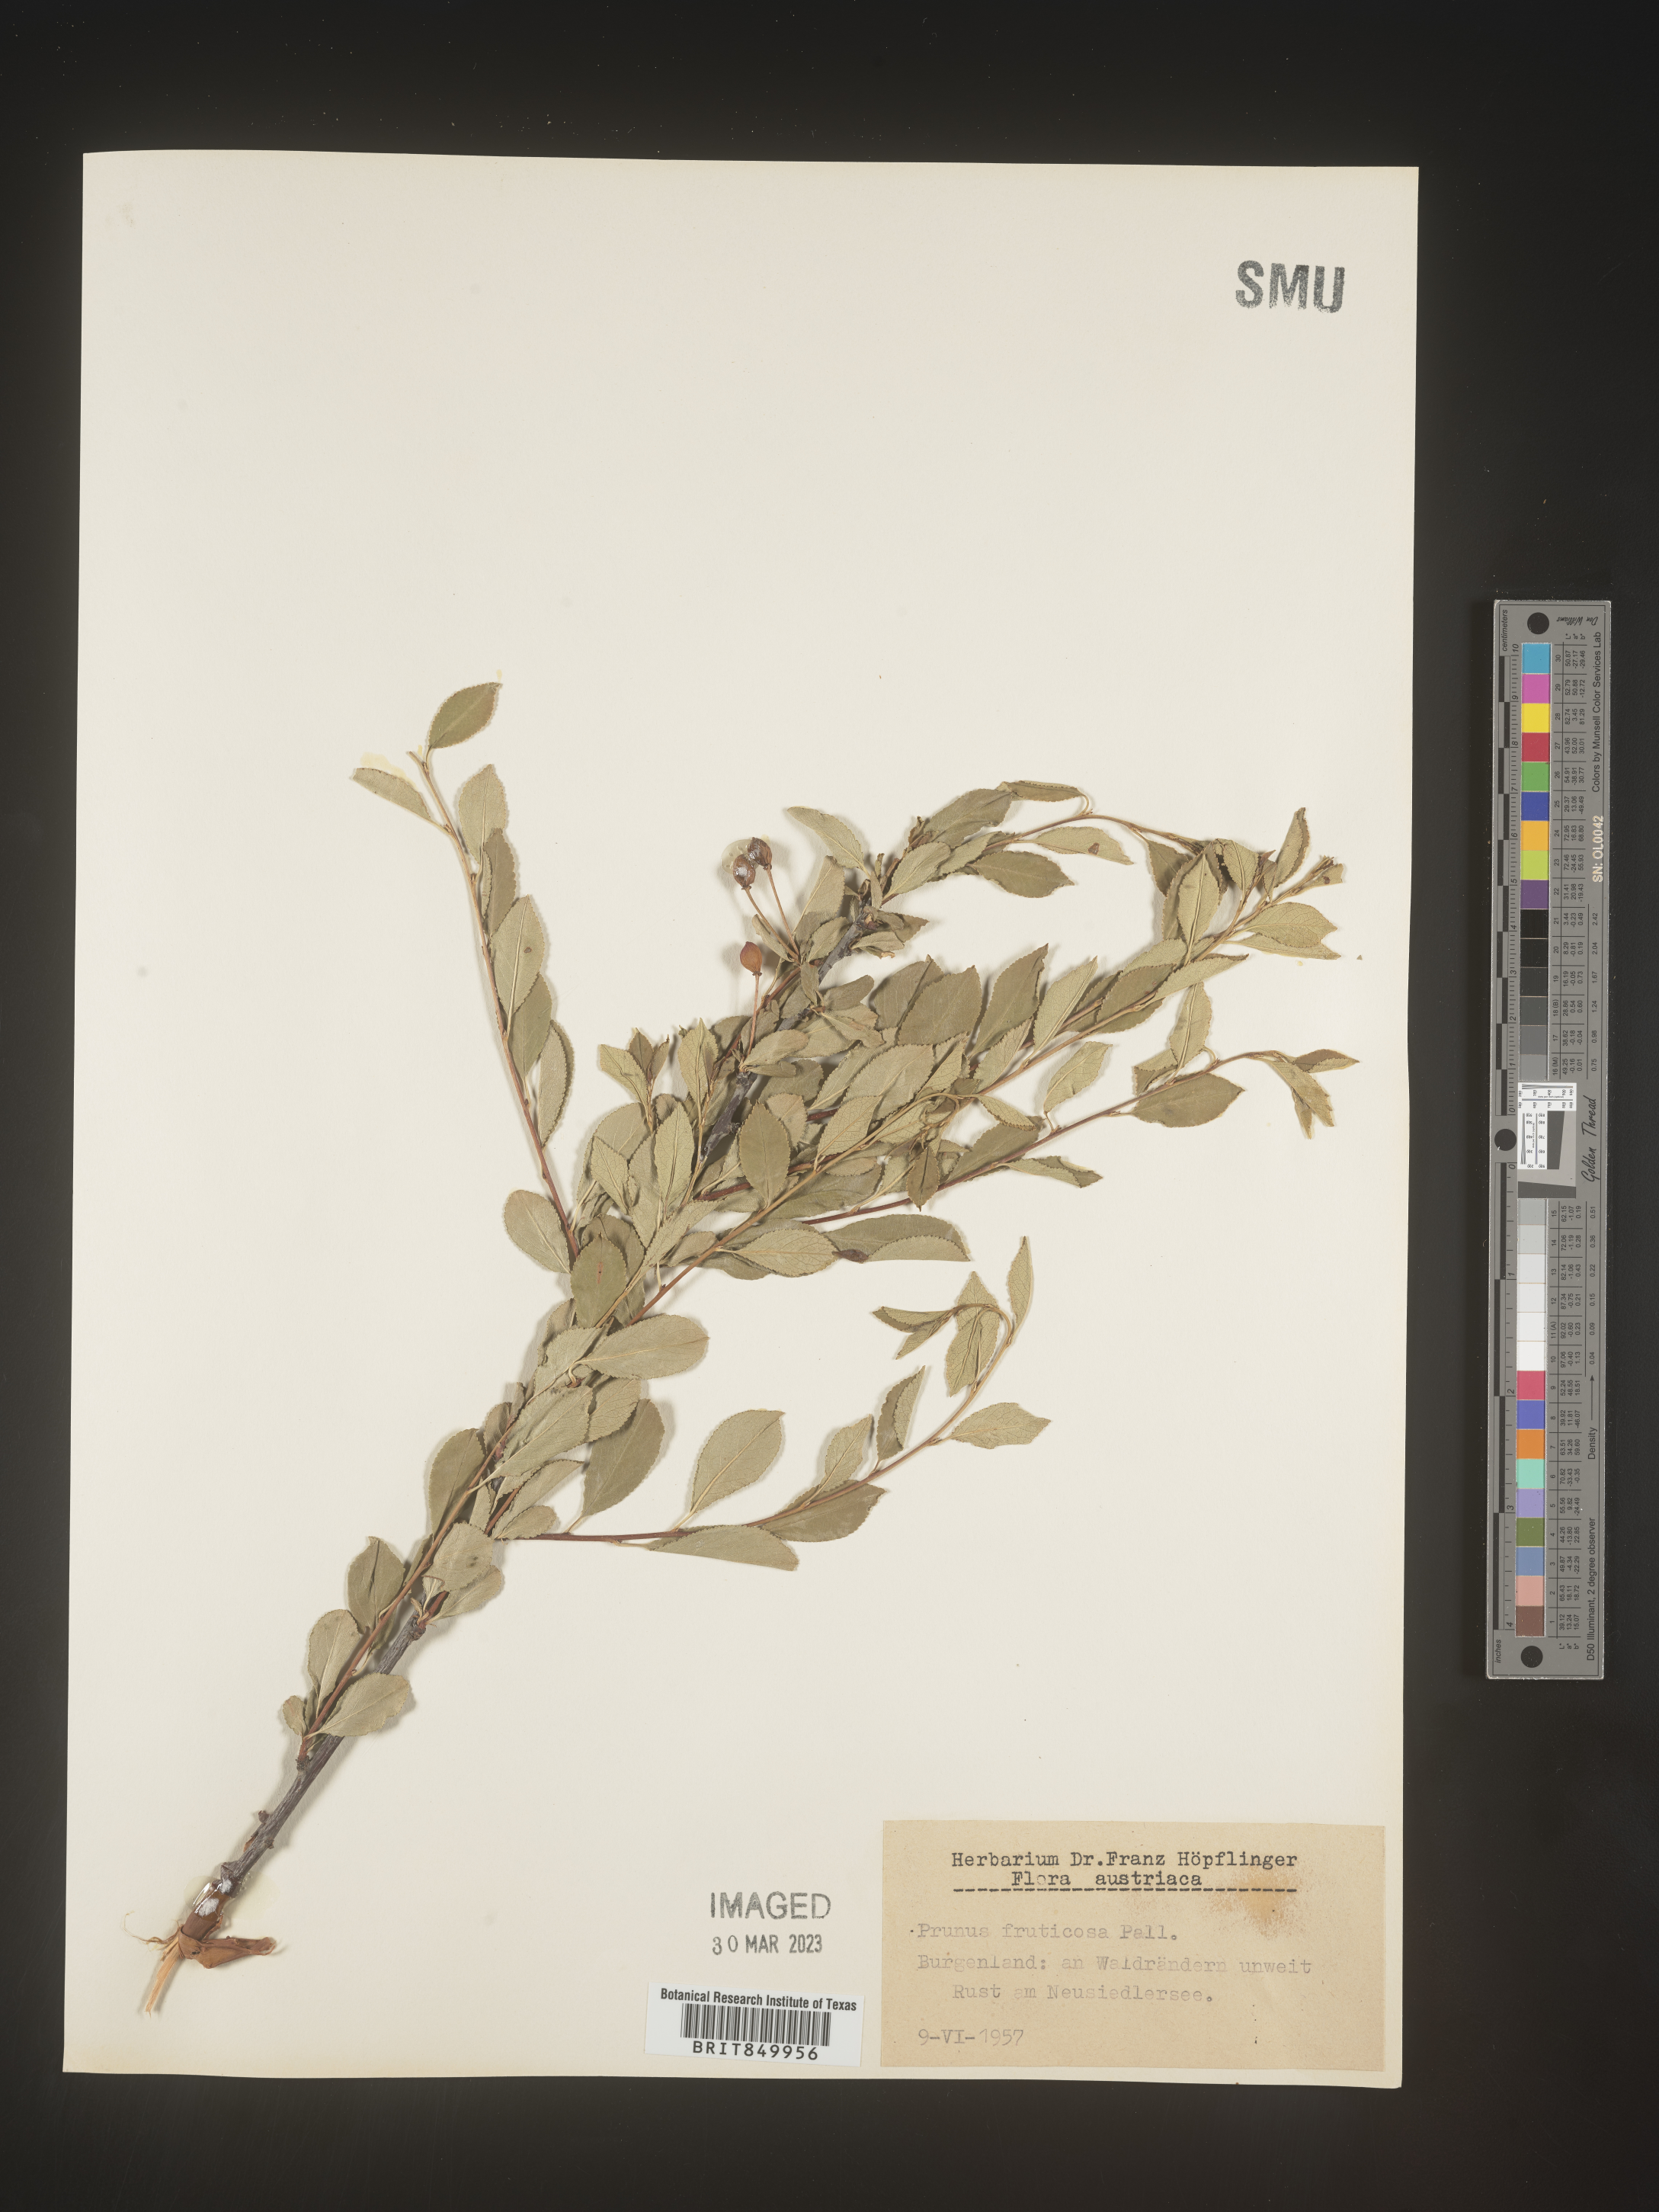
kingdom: Plantae
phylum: Tracheophyta
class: Magnoliopsida
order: Rosales
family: Rosaceae
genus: Prunus
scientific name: Prunus
